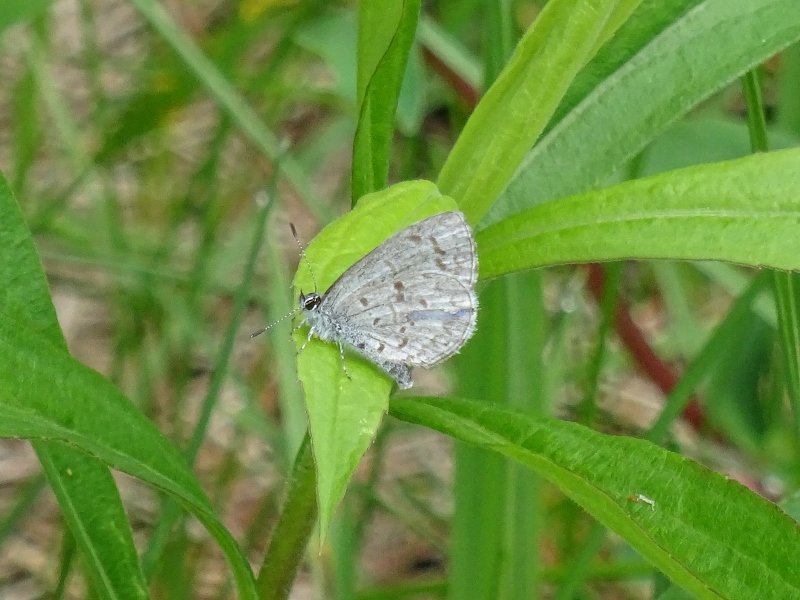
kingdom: Animalia
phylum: Arthropoda
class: Insecta
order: Lepidoptera
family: Lycaenidae
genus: Celastrina
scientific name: Celastrina
